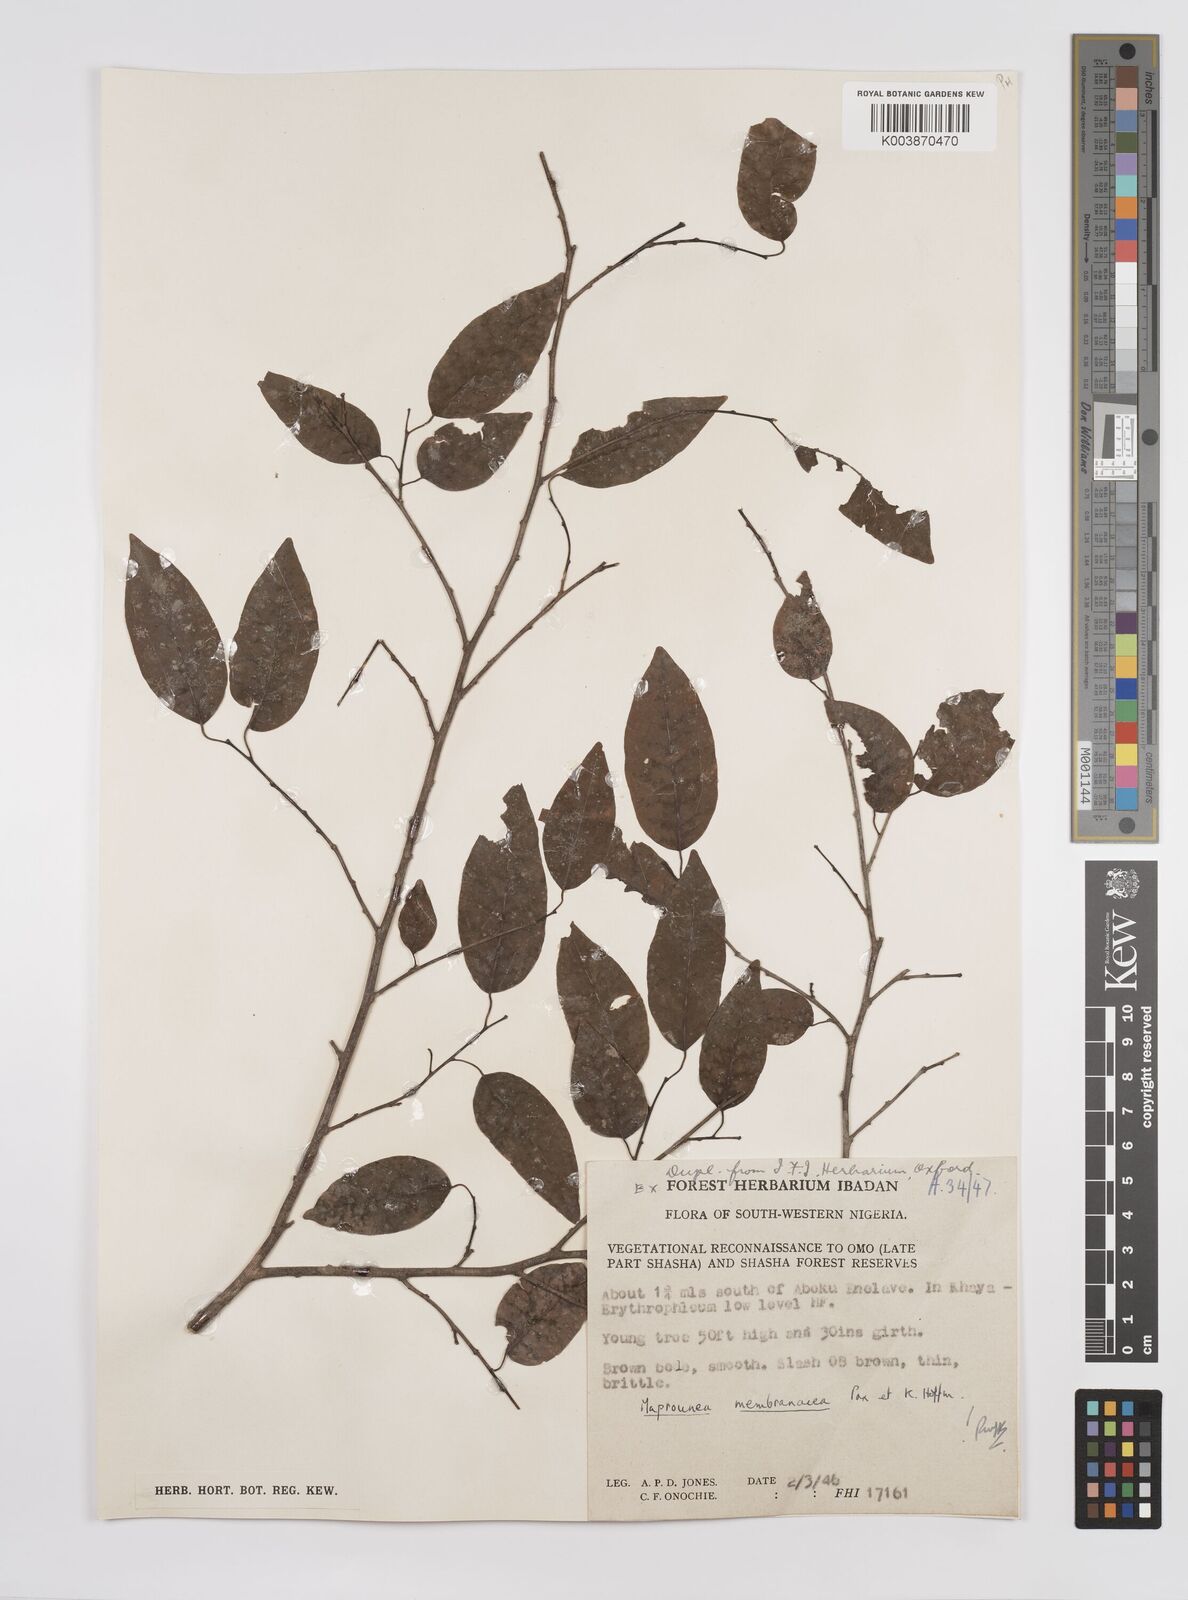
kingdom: Plantae
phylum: Tracheophyta
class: Magnoliopsida
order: Malpighiales
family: Euphorbiaceae
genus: Maprounea
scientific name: Maprounea membranacea
